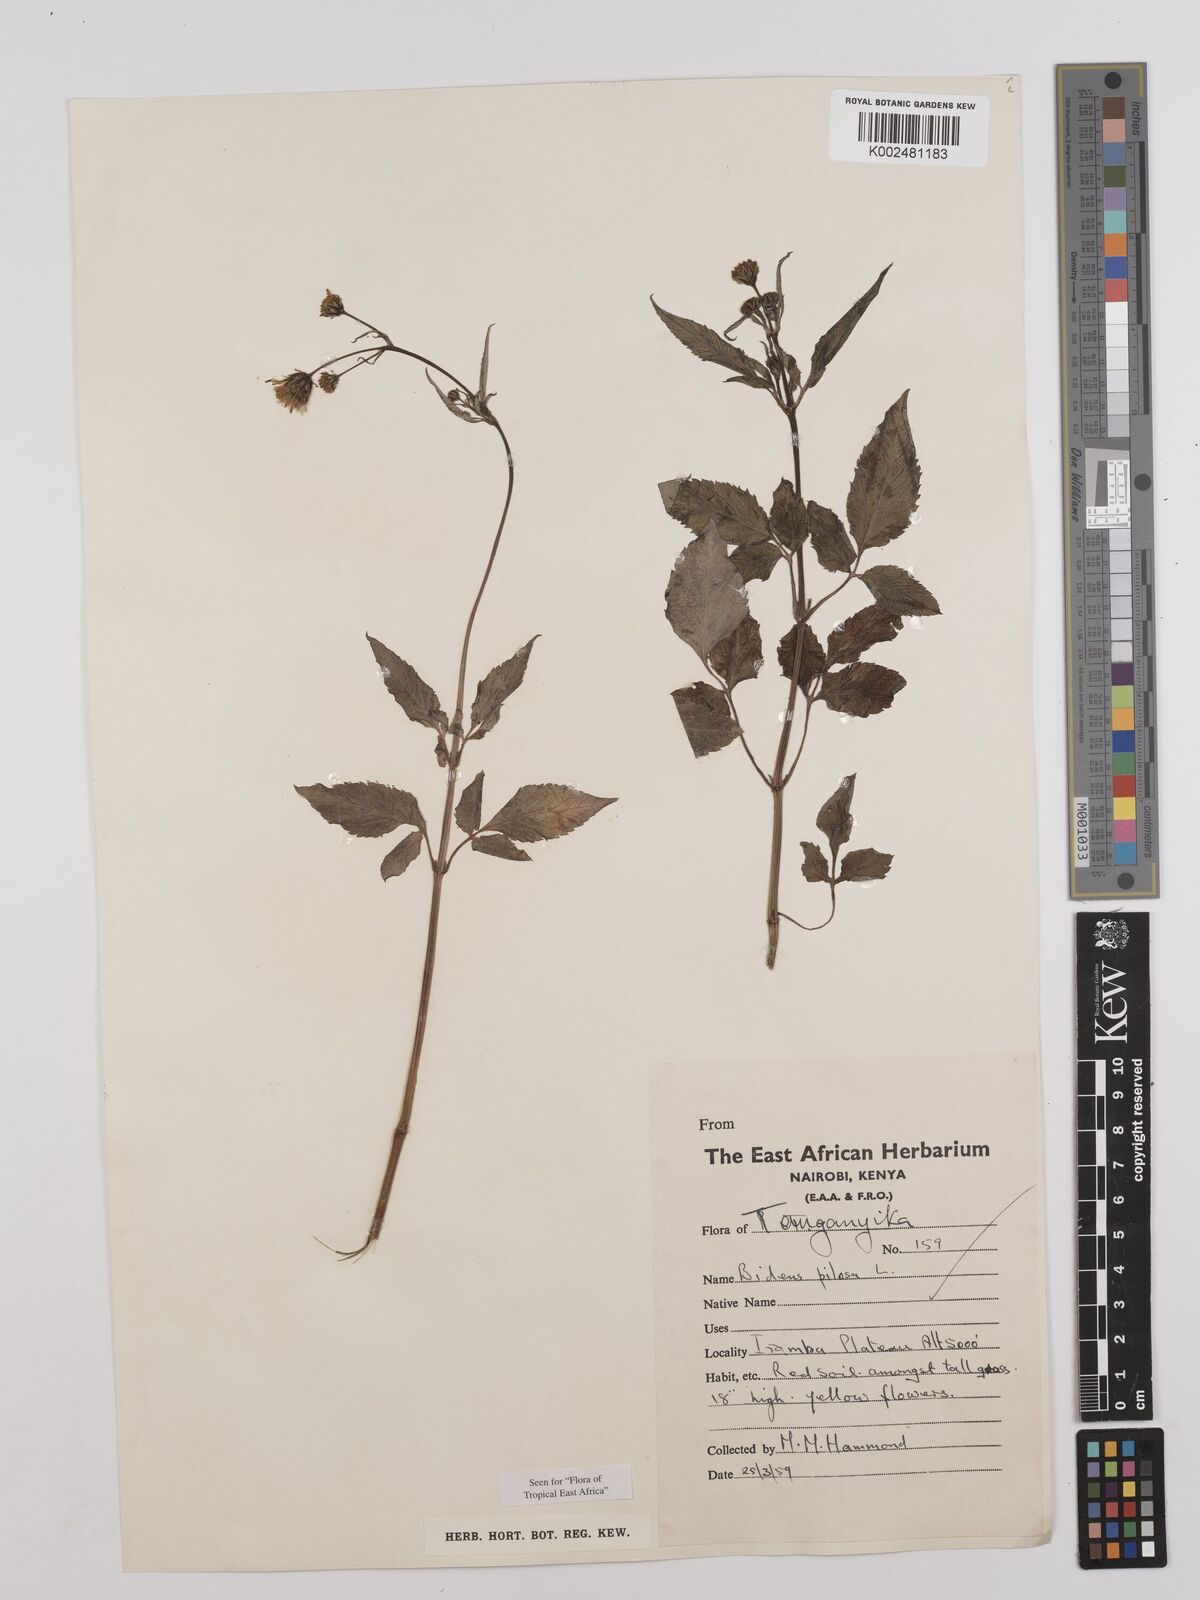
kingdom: Plantae
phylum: Tracheophyta
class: Magnoliopsida
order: Asterales
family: Asteraceae
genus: Bidens
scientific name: Bidens pilosa
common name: Black-jack
